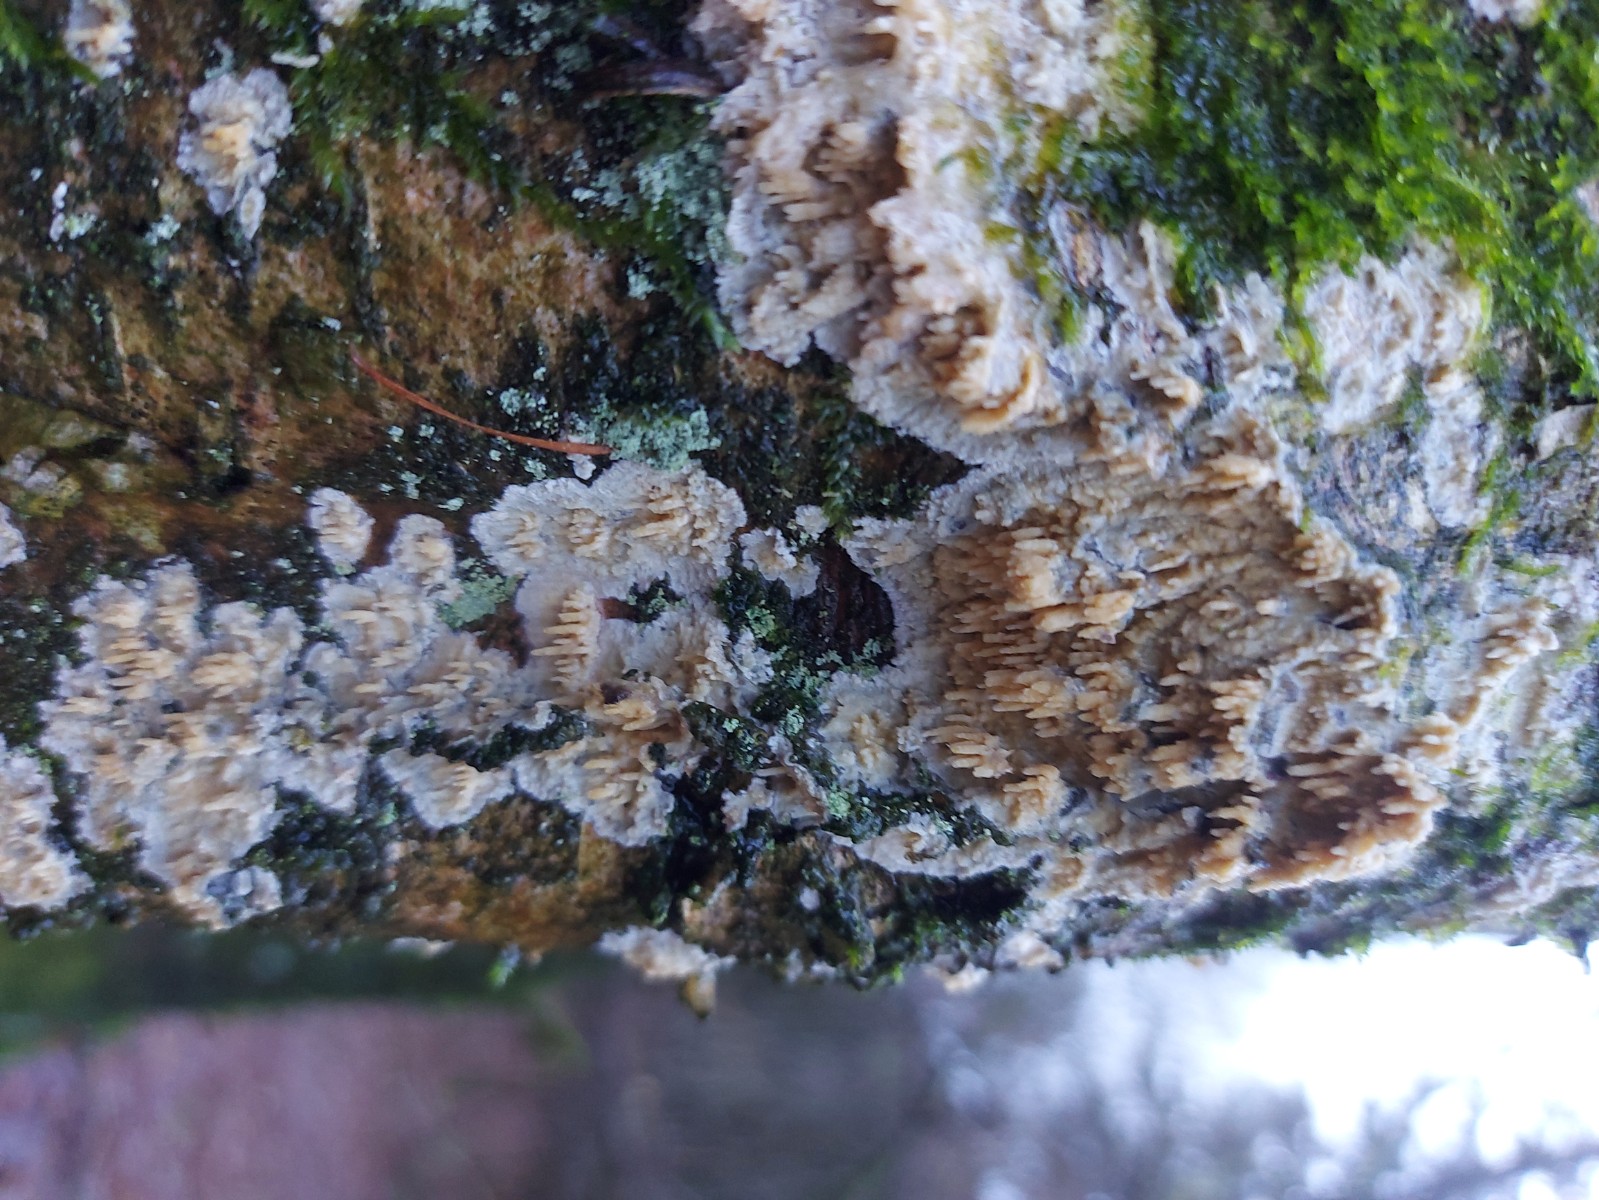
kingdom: Fungi
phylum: Basidiomycota
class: Agaricomycetes
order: Hymenochaetales
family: Schizoporaceae
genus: Xylodon
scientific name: Xylodon radula
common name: grovtandet kalkskind
